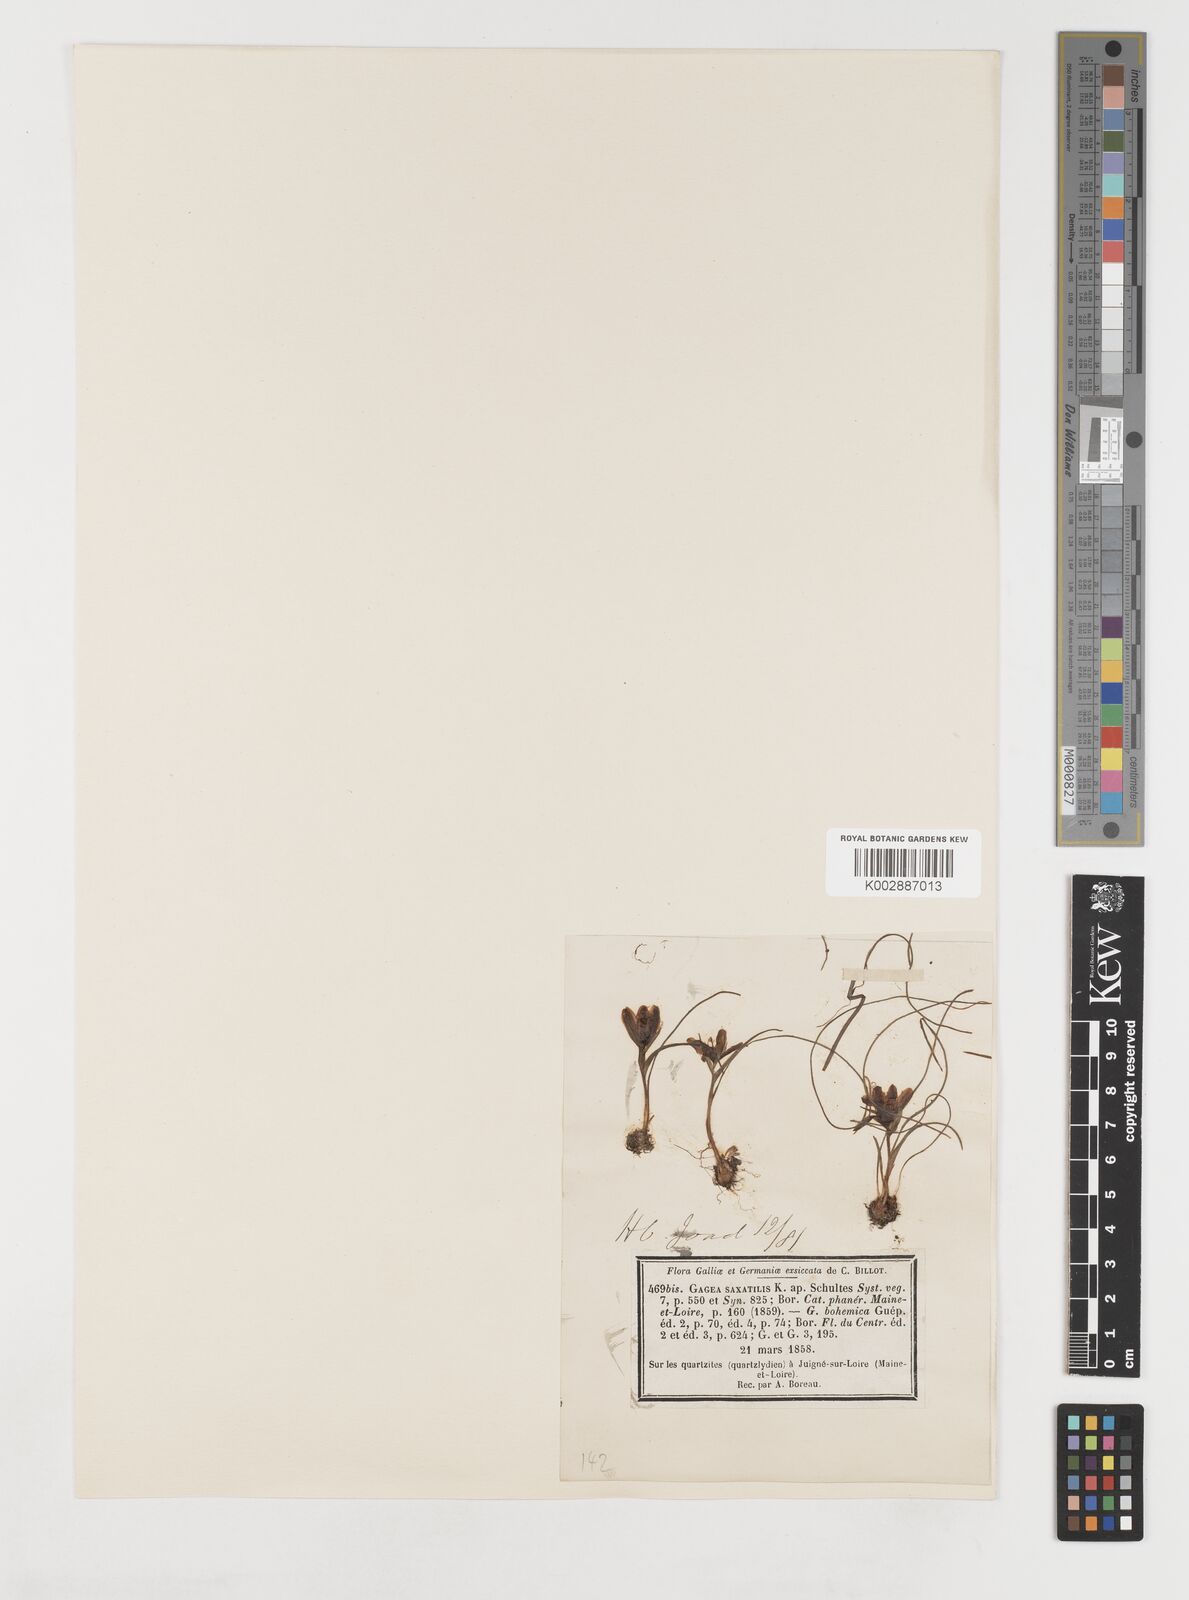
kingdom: Plantae
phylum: Tracheophyta
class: Liliopsida
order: Liliales
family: Liliaceae
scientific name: Liliaceae
